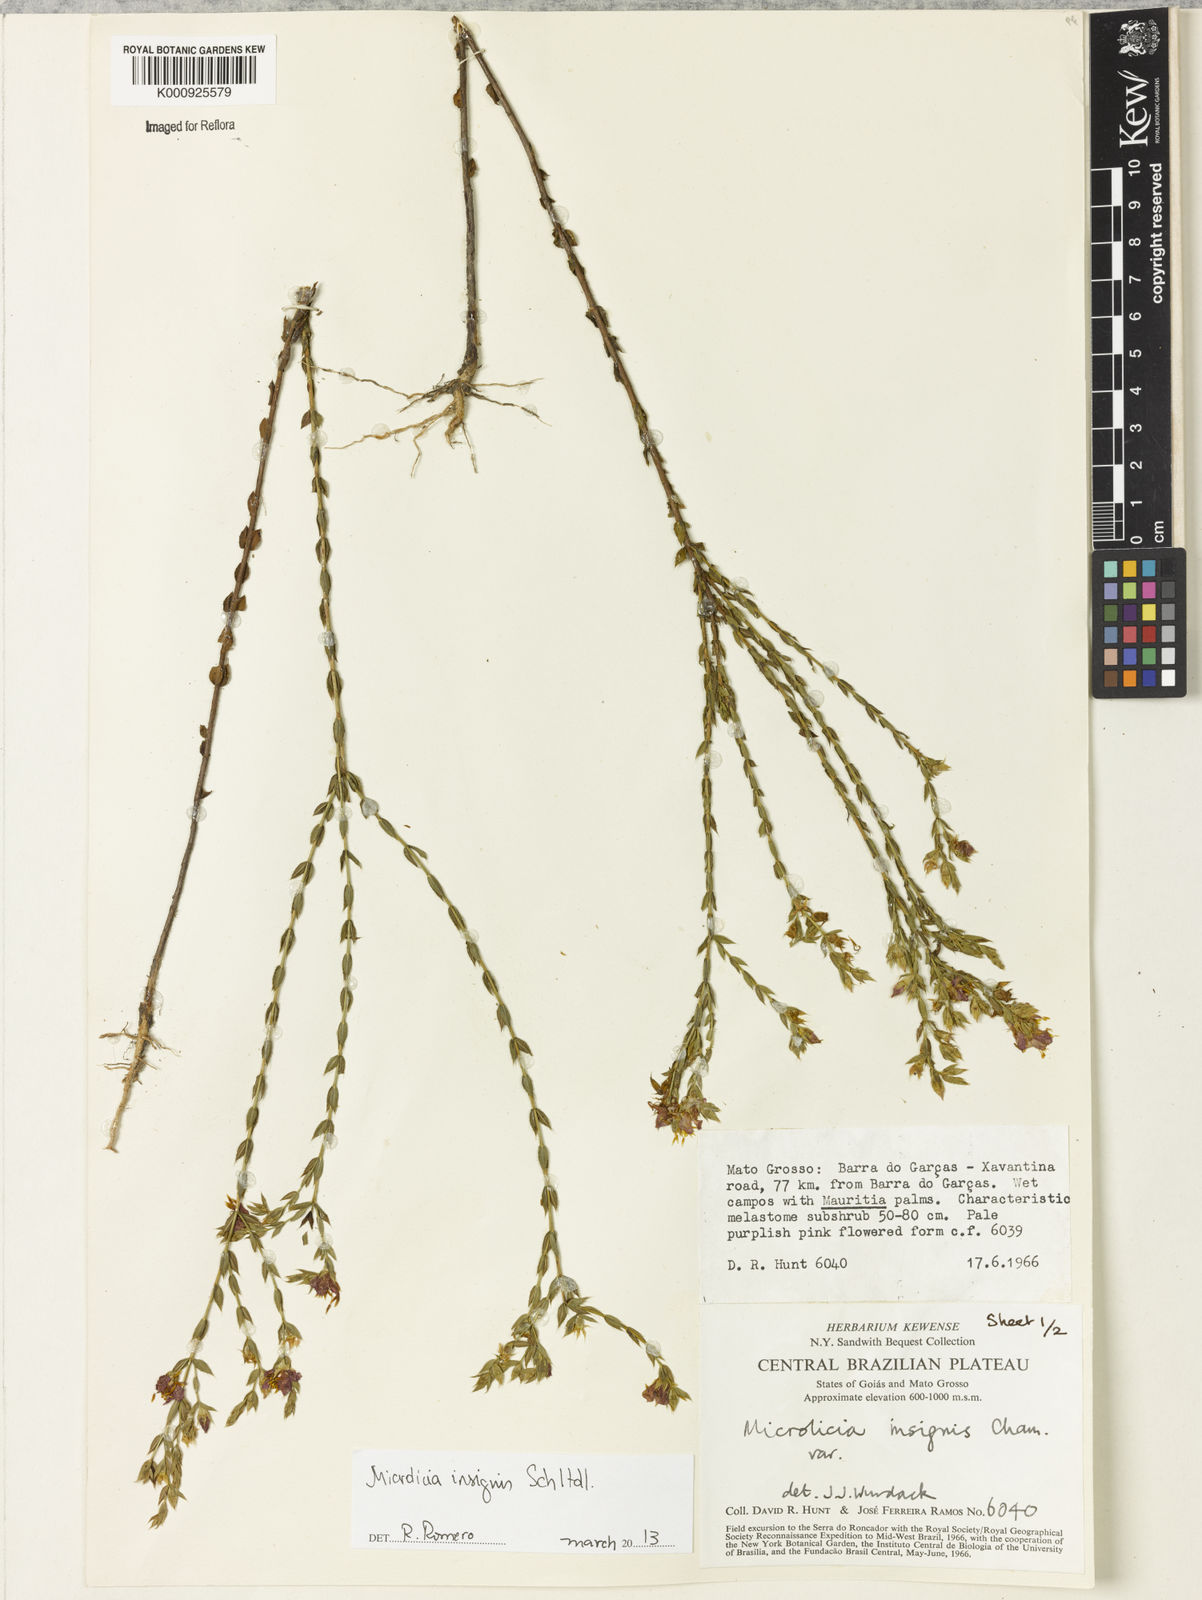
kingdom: Plantae
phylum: Tracheophyta
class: Magnoliopsida
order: Myrtales
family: Melastomataceae
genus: Microlicia
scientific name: Microlicia
